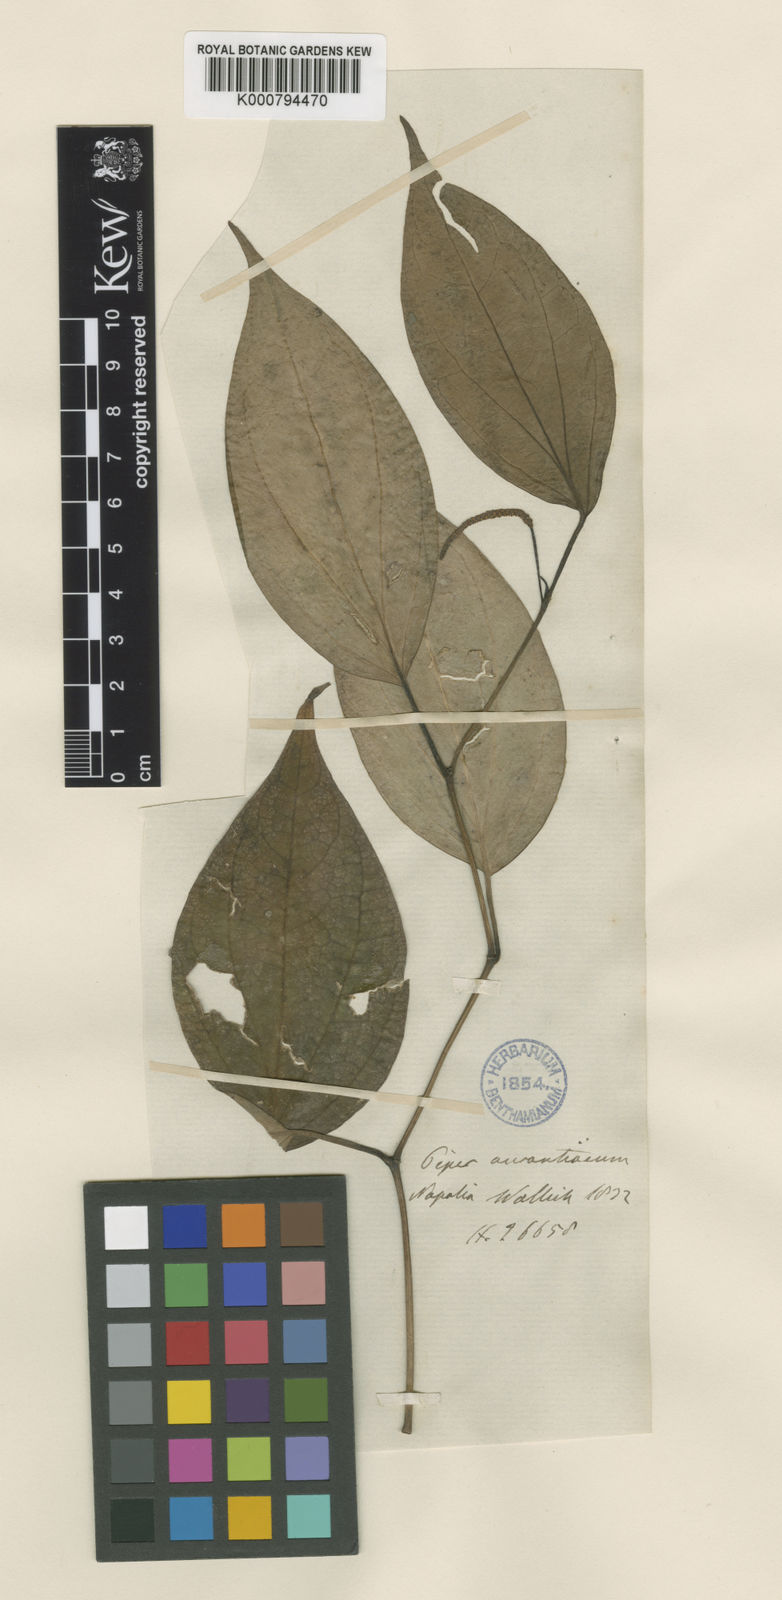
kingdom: Plantae
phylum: Tracheophyta
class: Magnoliopsida
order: Piperales
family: Piperaceae
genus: Piper
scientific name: Piper wallichii
